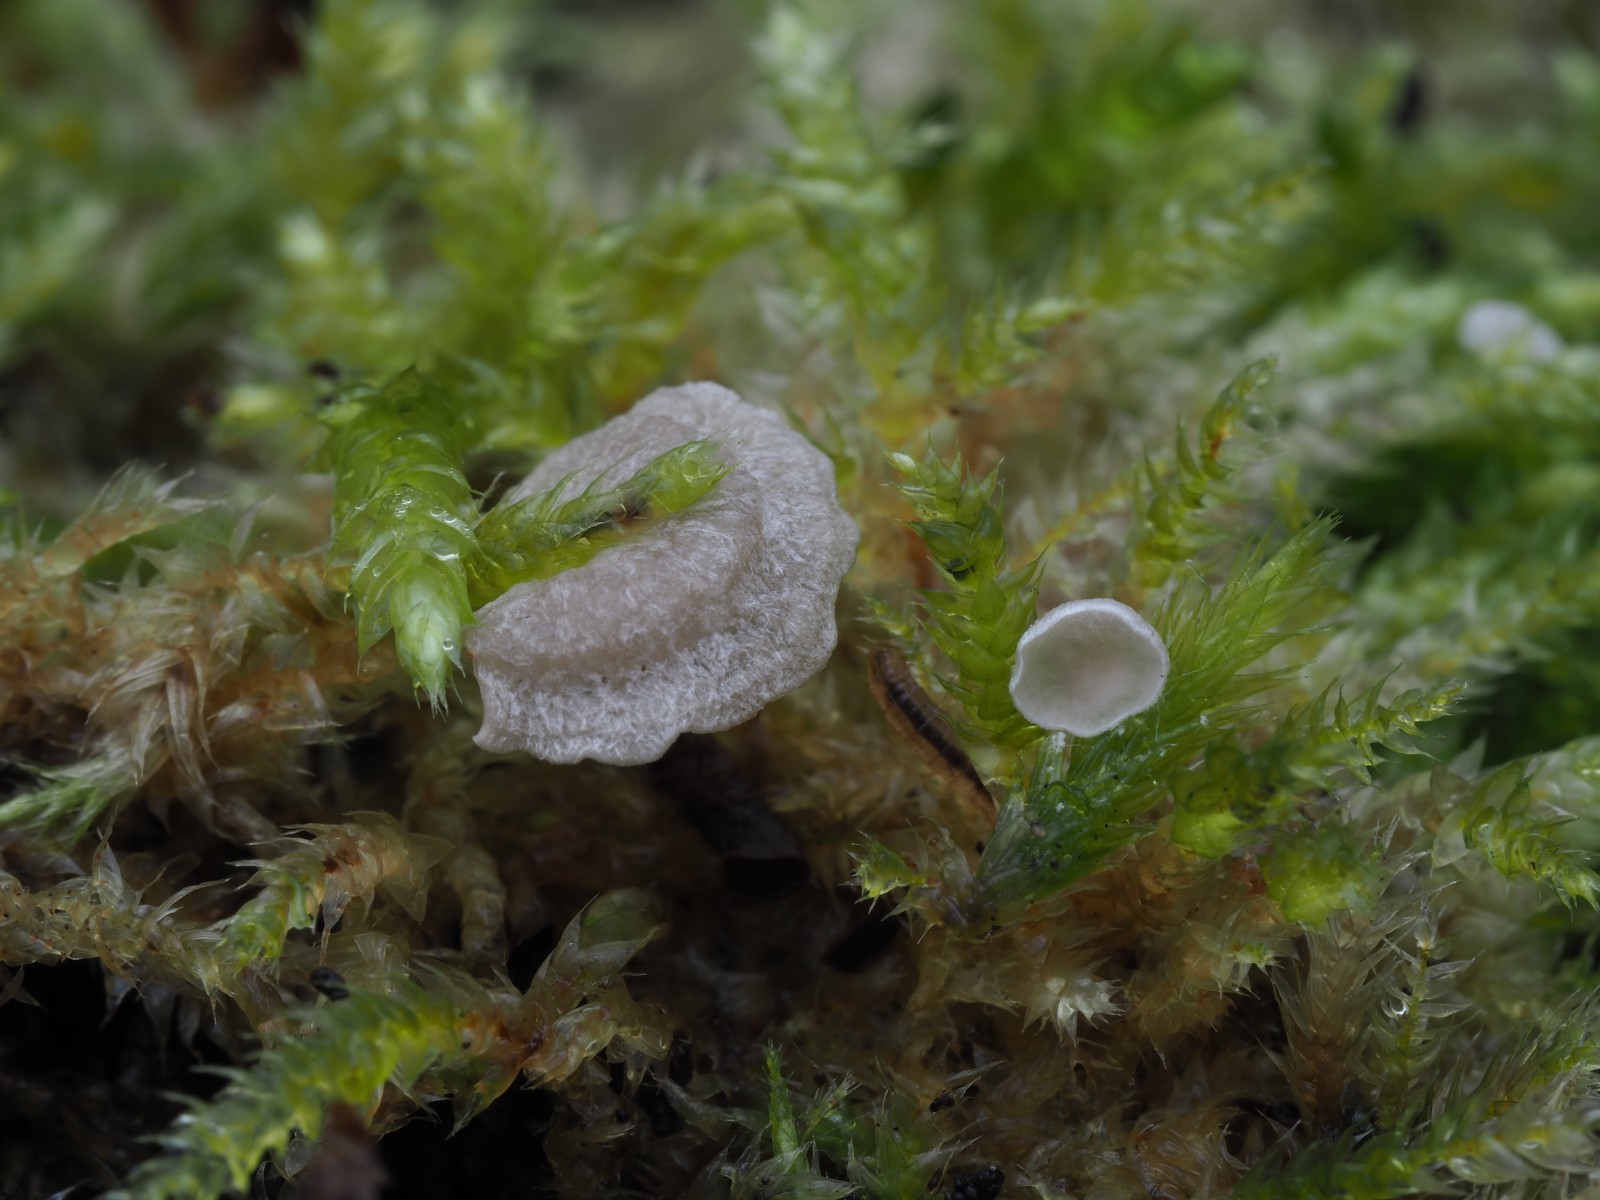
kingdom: Fungi
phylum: Basidiomycota
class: Agaricomycetes
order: Agaricales
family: Hygrophoraceae
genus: Arrhenia
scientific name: Arrhenia retiruga
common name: lille fontænehat
